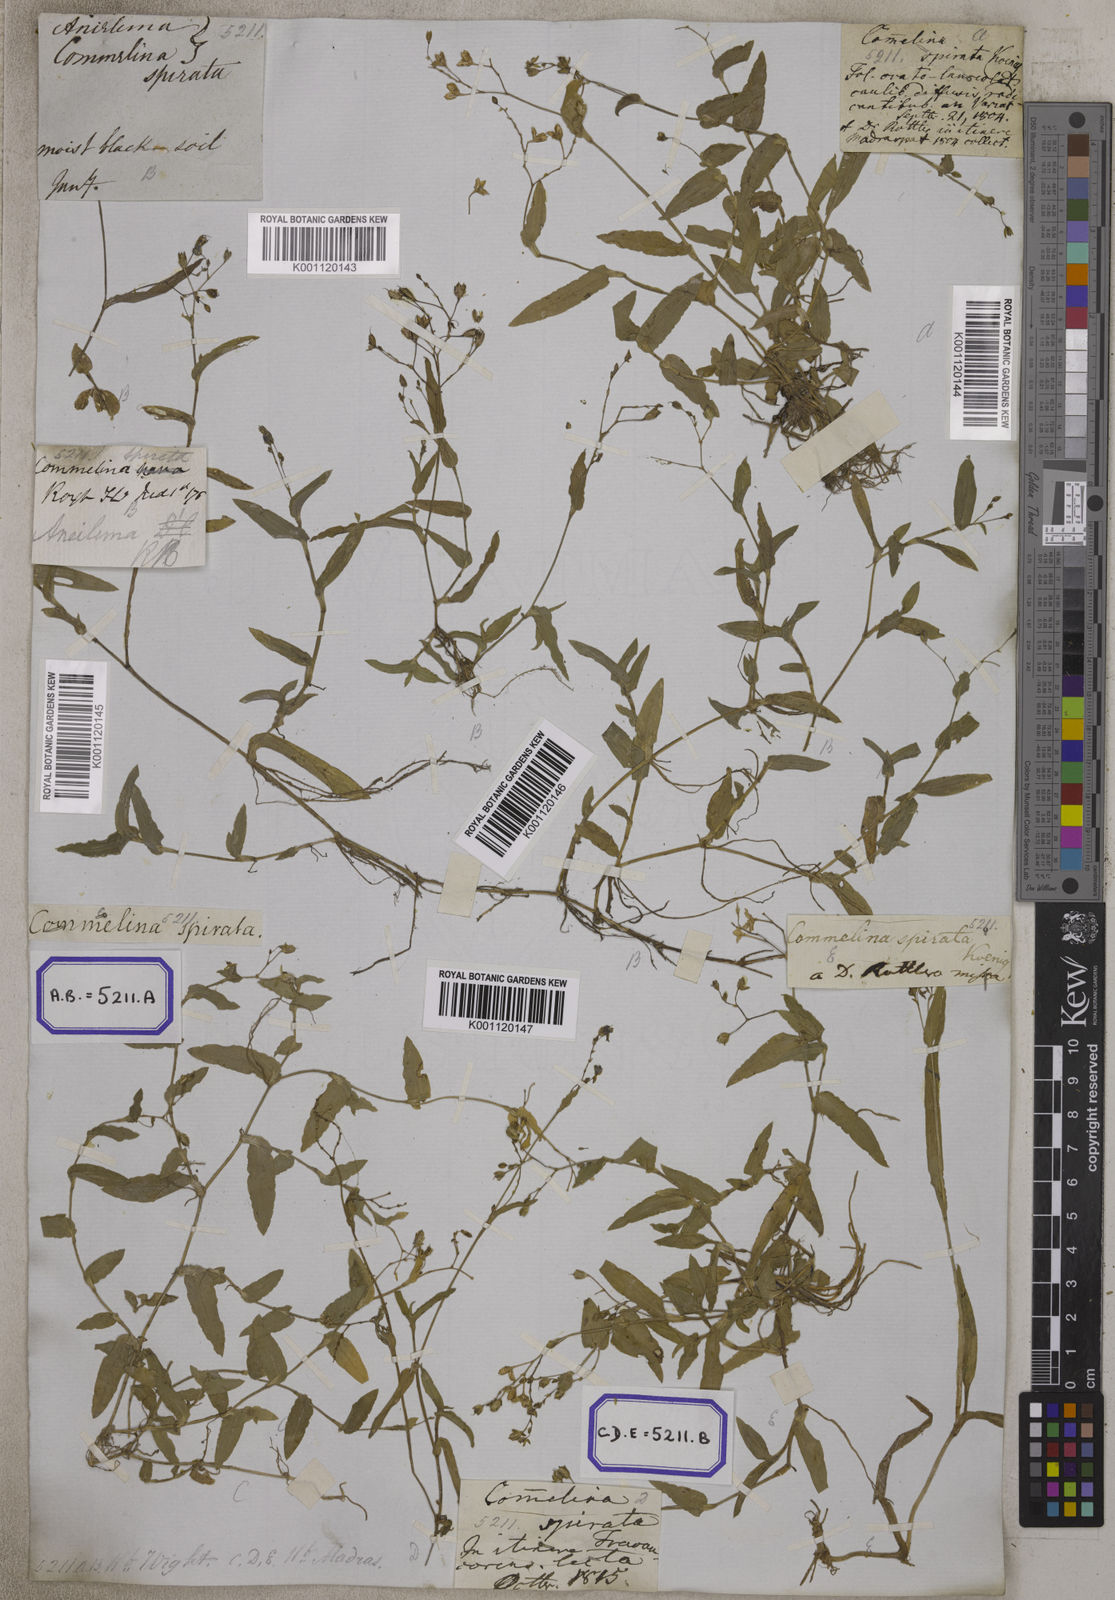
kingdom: Plantae
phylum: Tracheophyta
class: Liliopsida
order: Commelinales
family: Commelinaceae
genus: Aneilema
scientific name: Aneilema
